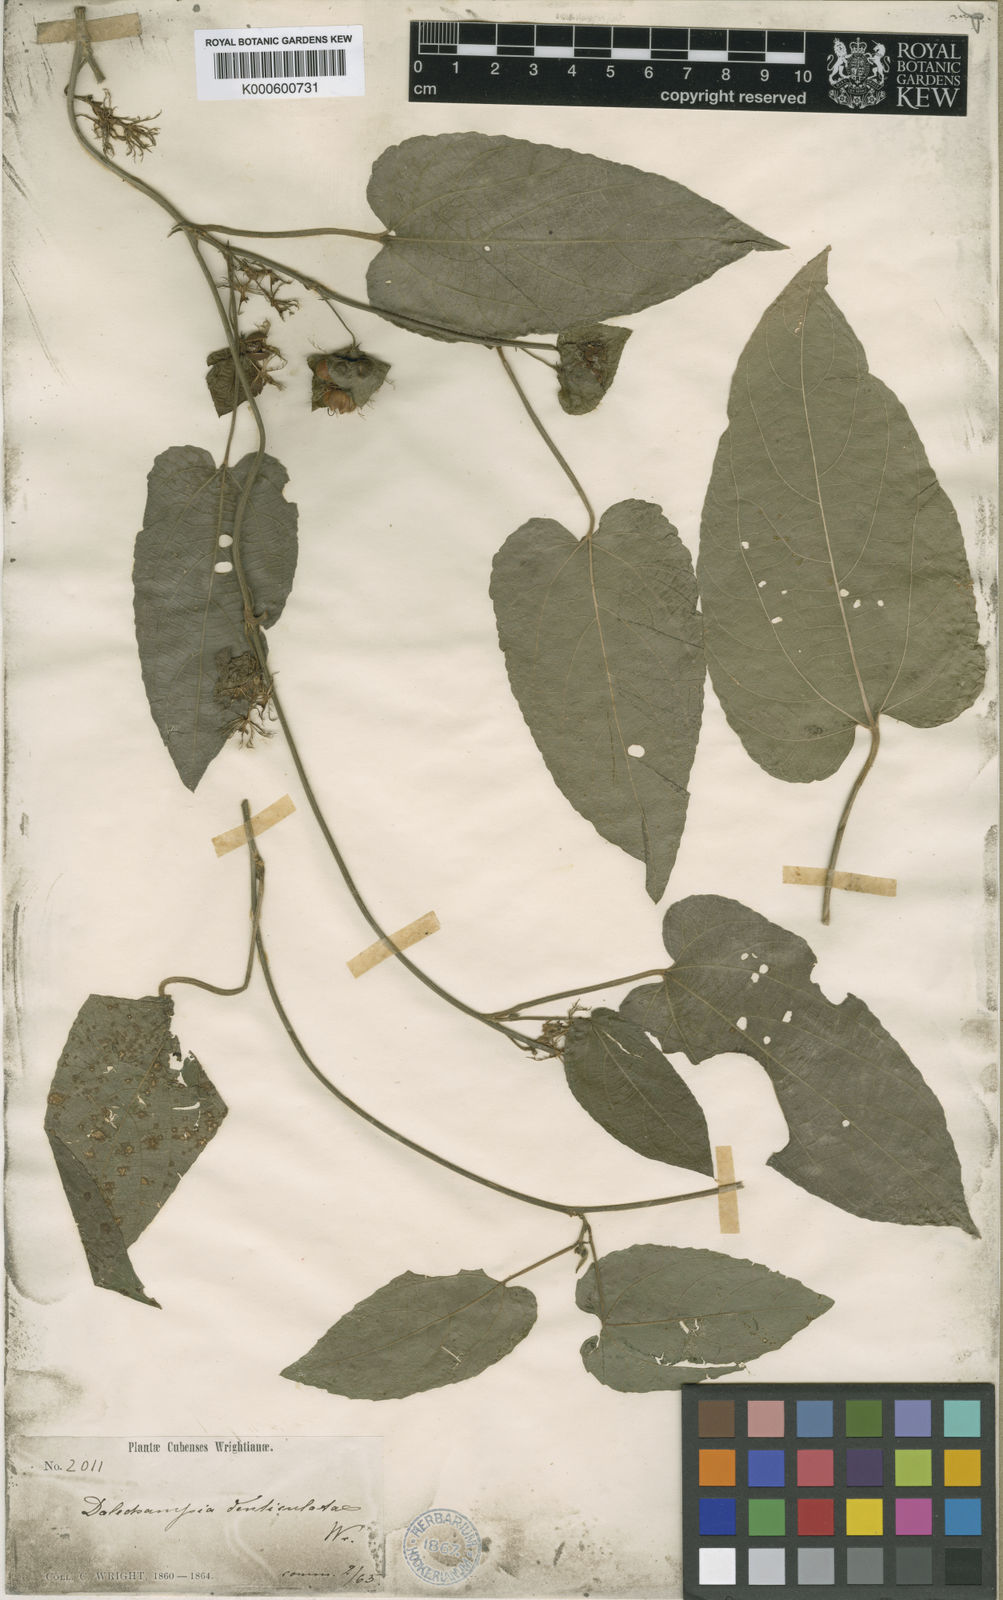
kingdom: Plantae
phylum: Tracheophyta
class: Magnoliopsida
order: Malpighiales
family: Euphorbiaceae
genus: Dalechampia
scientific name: Dalechampia denticulata
